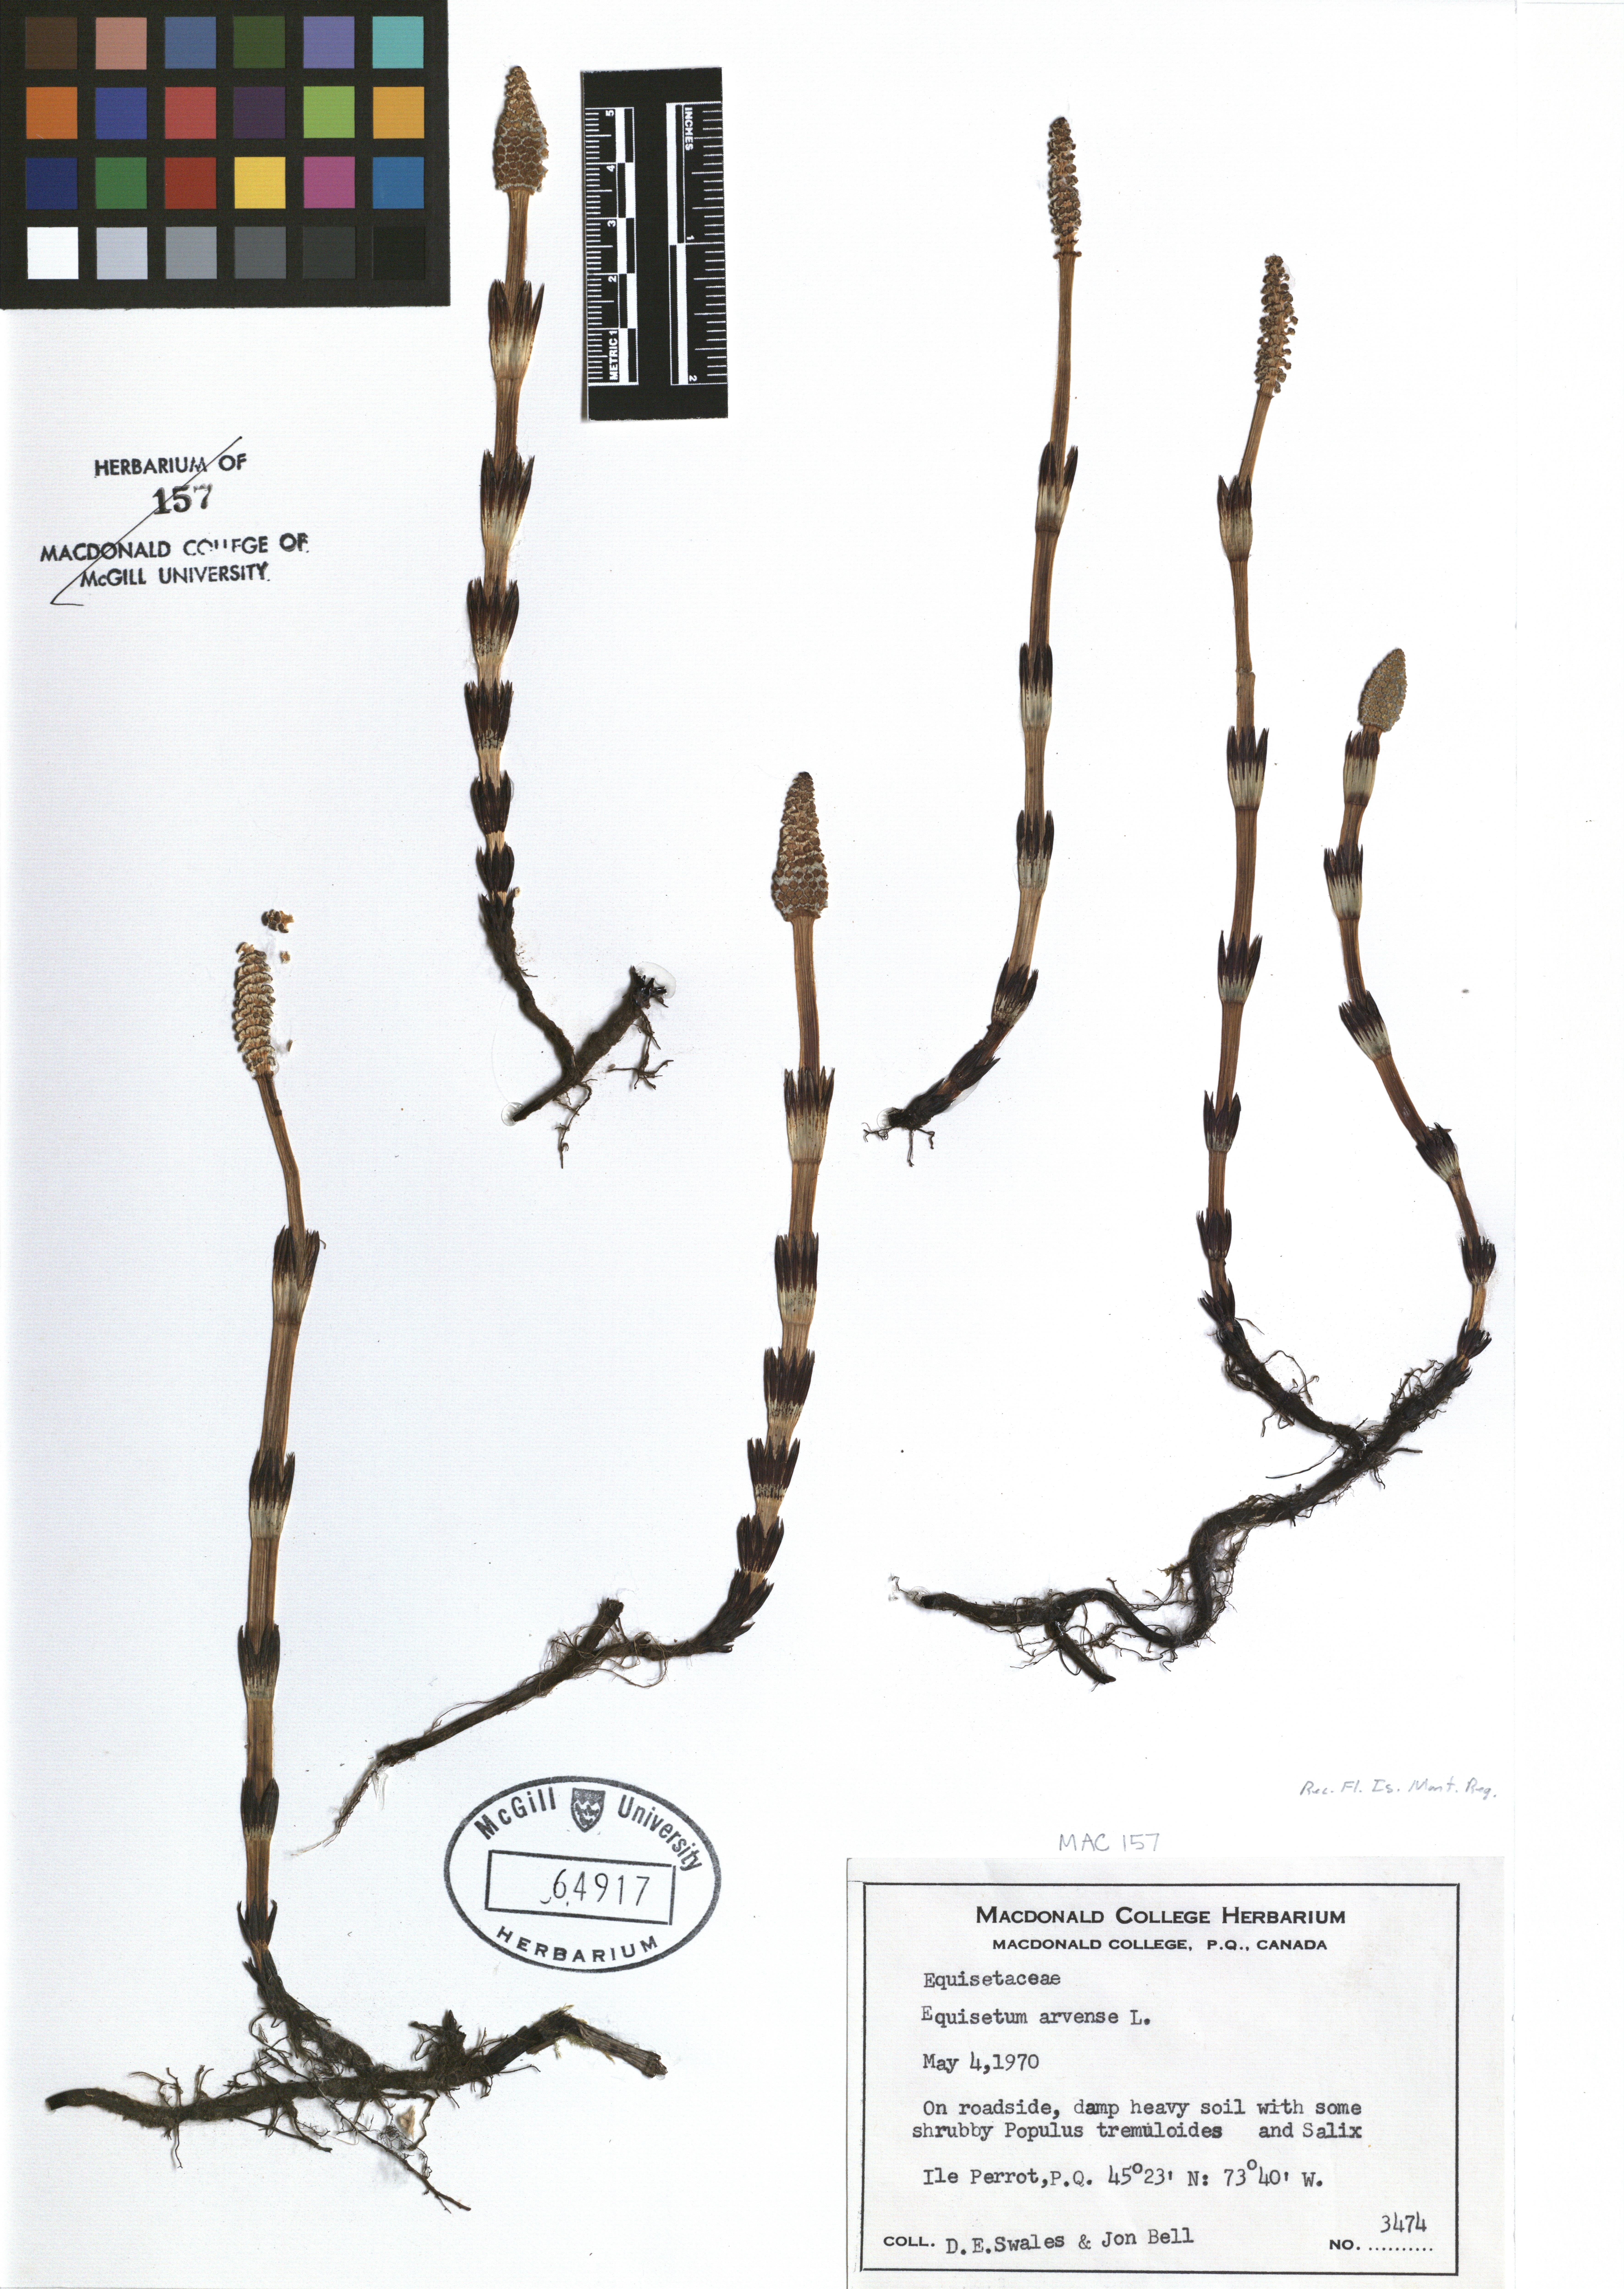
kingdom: Plantae
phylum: Tracheophyta
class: Polypodiopsida
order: Equisetales
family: Equisetaceae
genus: Equisetum
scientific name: Equisetum arvense
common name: Field horsetail
